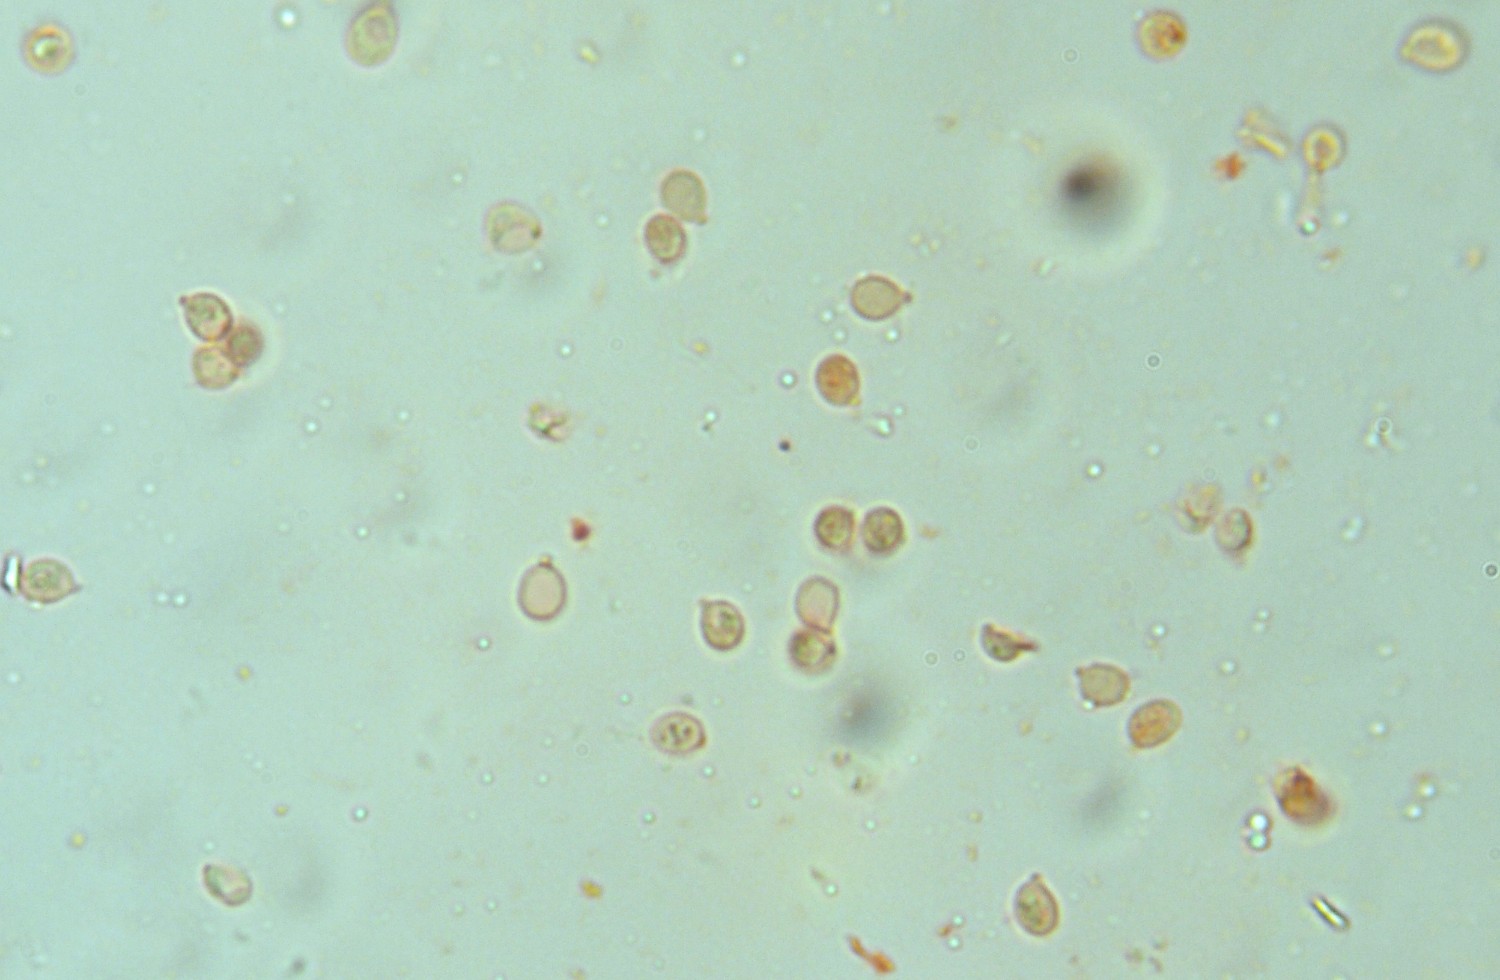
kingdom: Fungi
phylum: Basidiomycota
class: Agaricomycetes
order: Cantharellales
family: Hydnaceae
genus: Sistotrema
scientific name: Sistotrema muscicola
